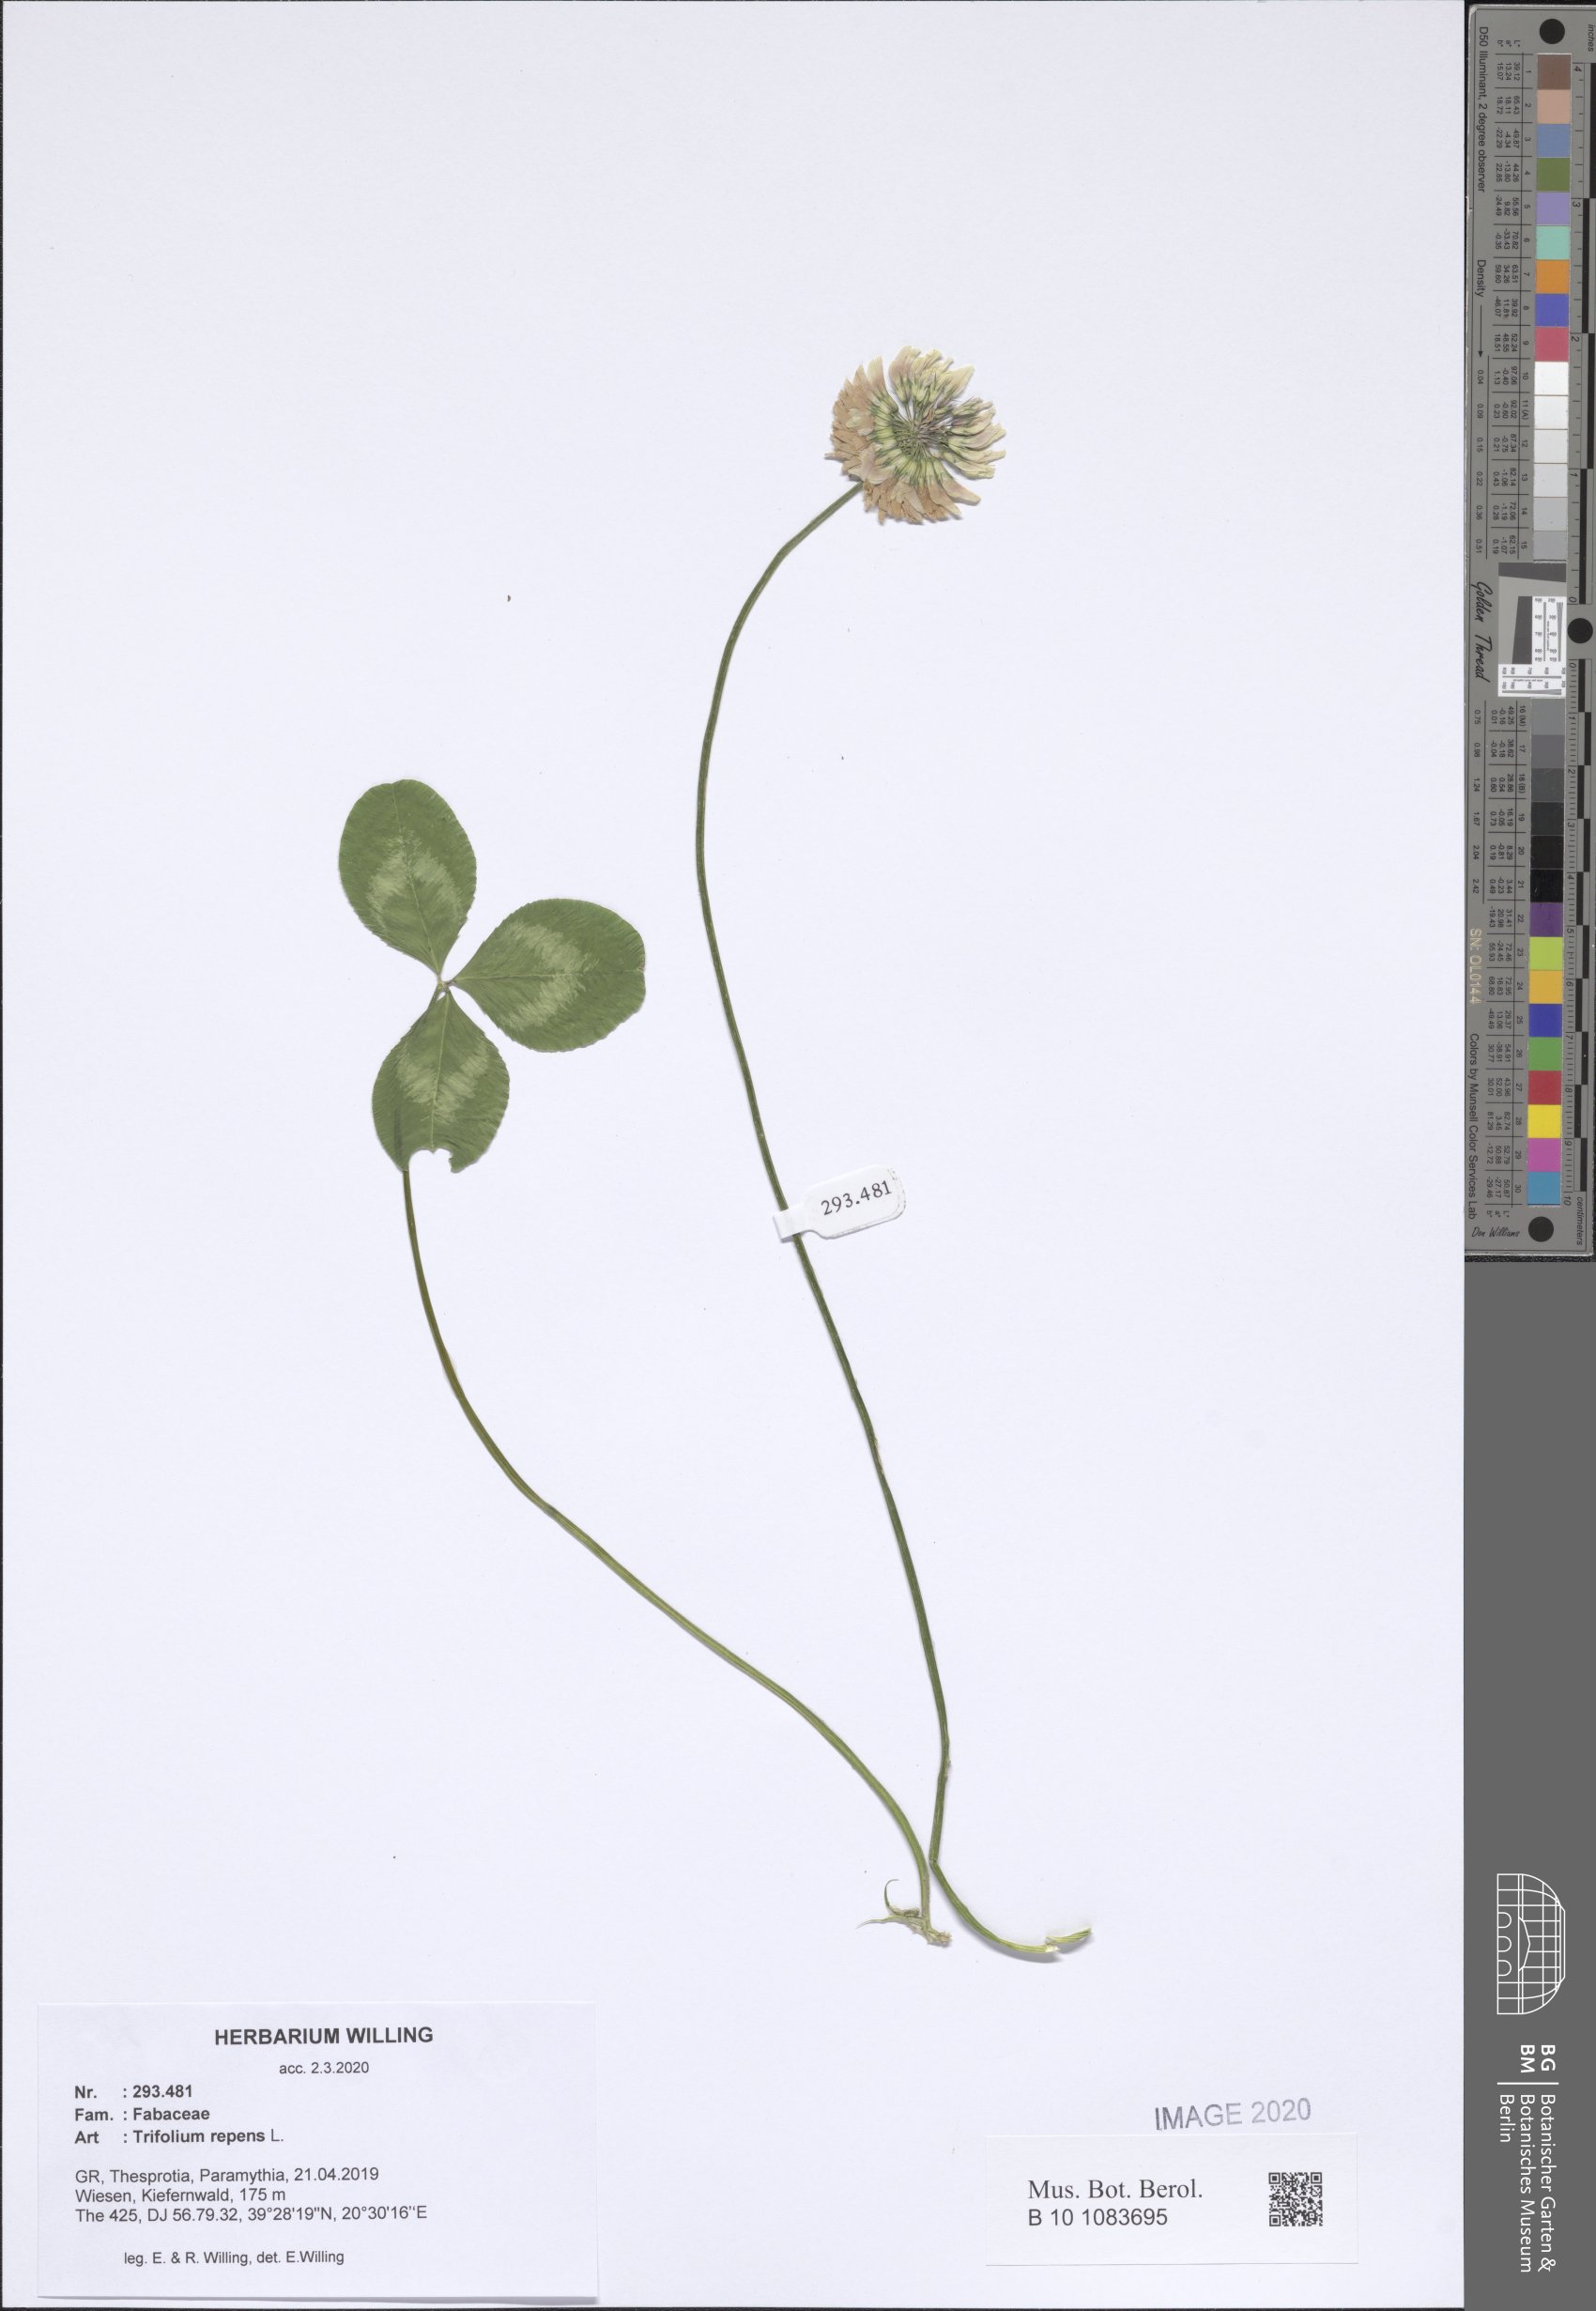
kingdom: Plantae
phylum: Tracheophyta
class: Magnoliopsida
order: Fabales
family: Fabaceae
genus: Trifolium
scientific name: Trifolium repens
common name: White clover
